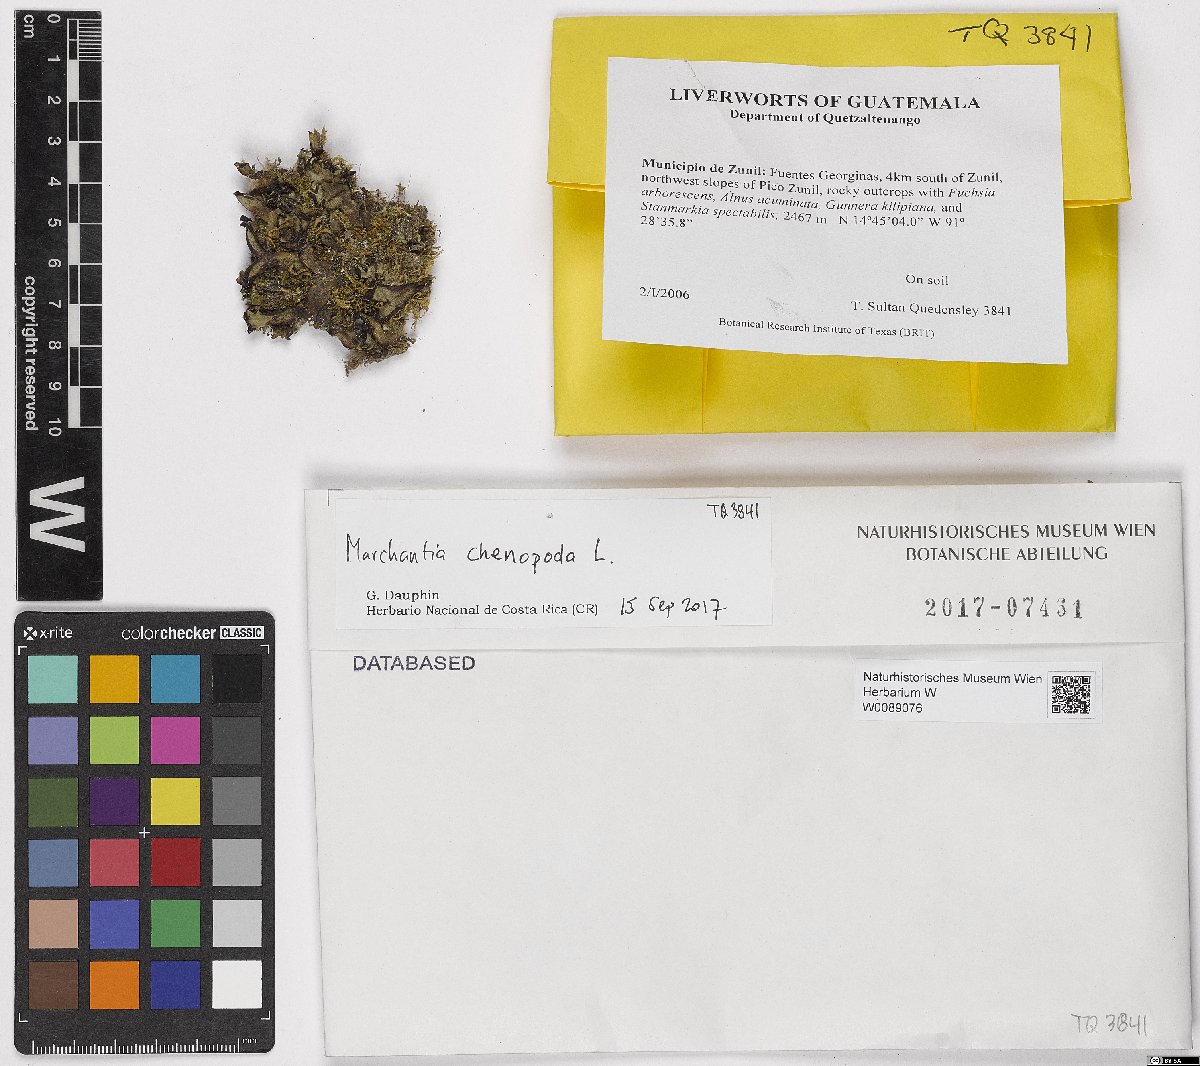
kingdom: Plantae
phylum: Marchantiophyta
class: Marchantiopsida
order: Marchantiales
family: Marchantiaceae
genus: Marchantia
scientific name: Marchantia chenopoda
